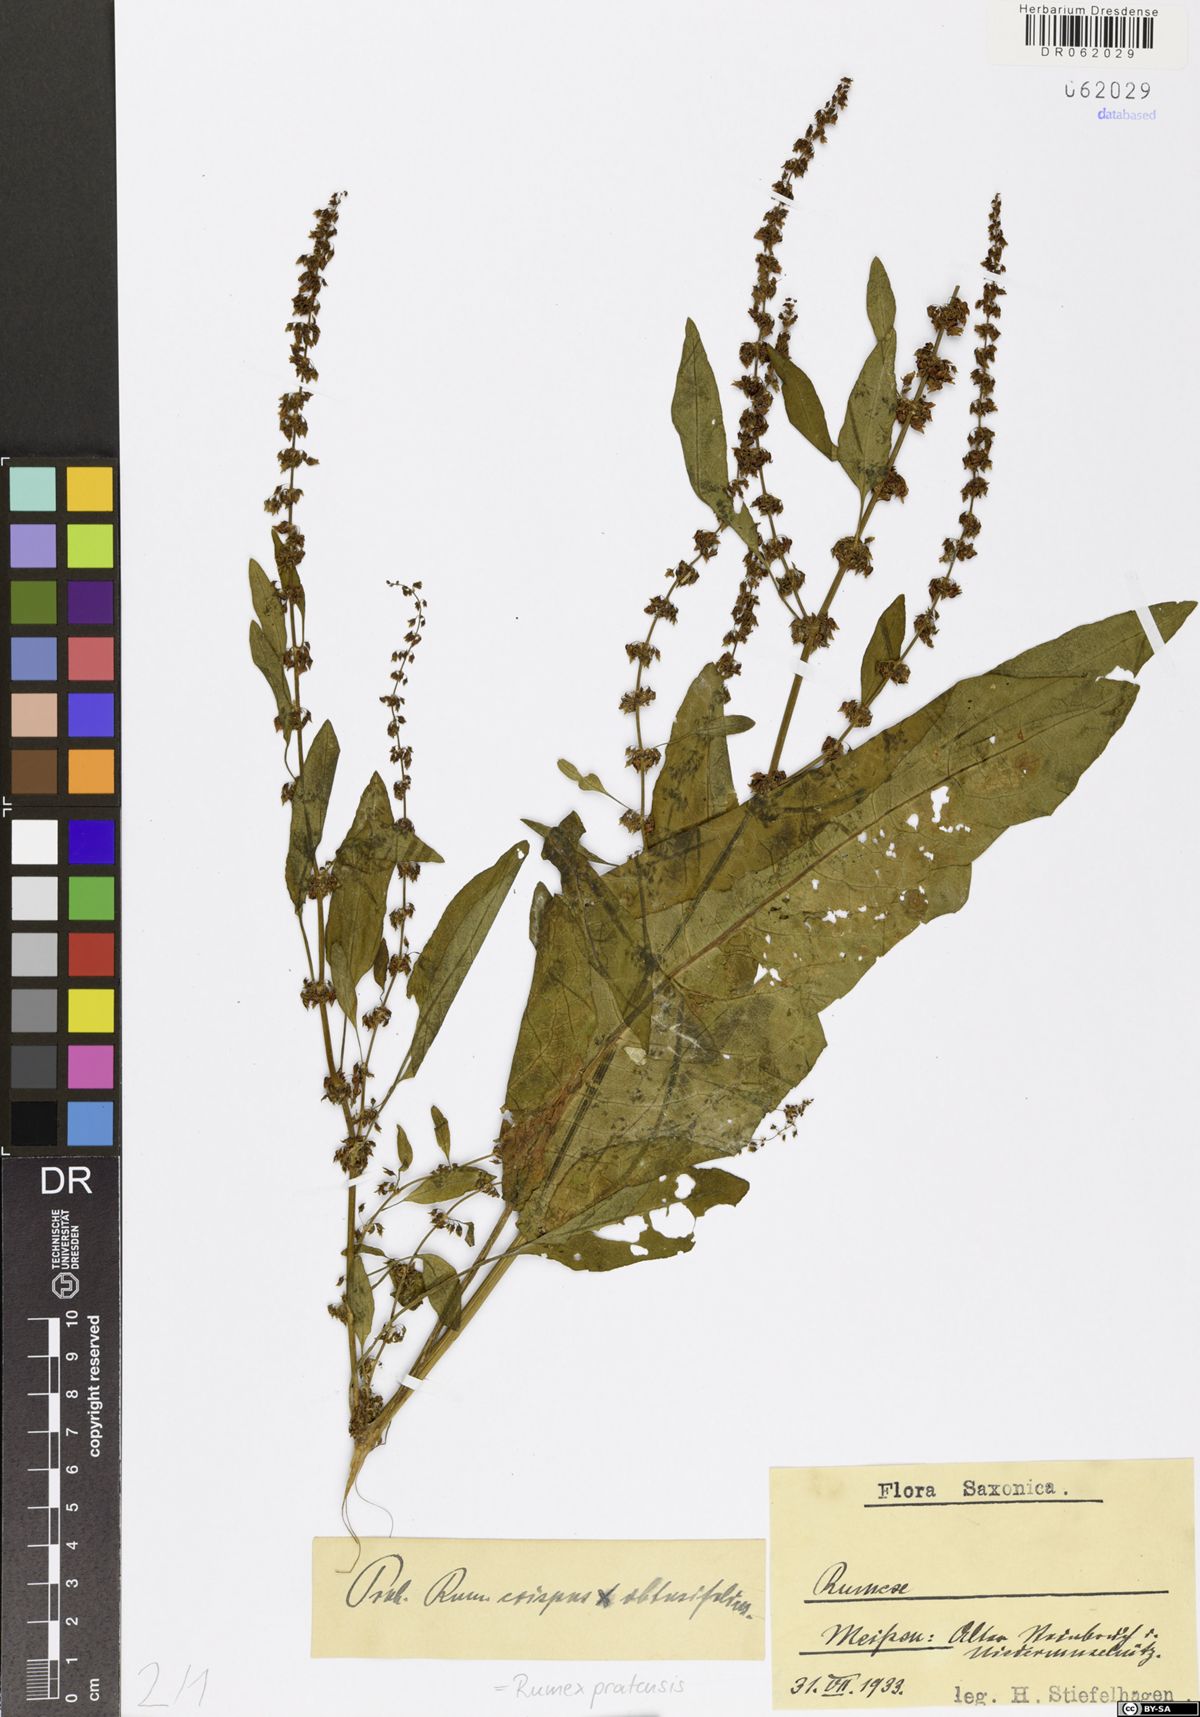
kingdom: Plantae
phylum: Tracheophyta
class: Magnoliopsida
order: Caryophyllales
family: Polygonaceae
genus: Rumex
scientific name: Rumex pratensis
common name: Knotweed
